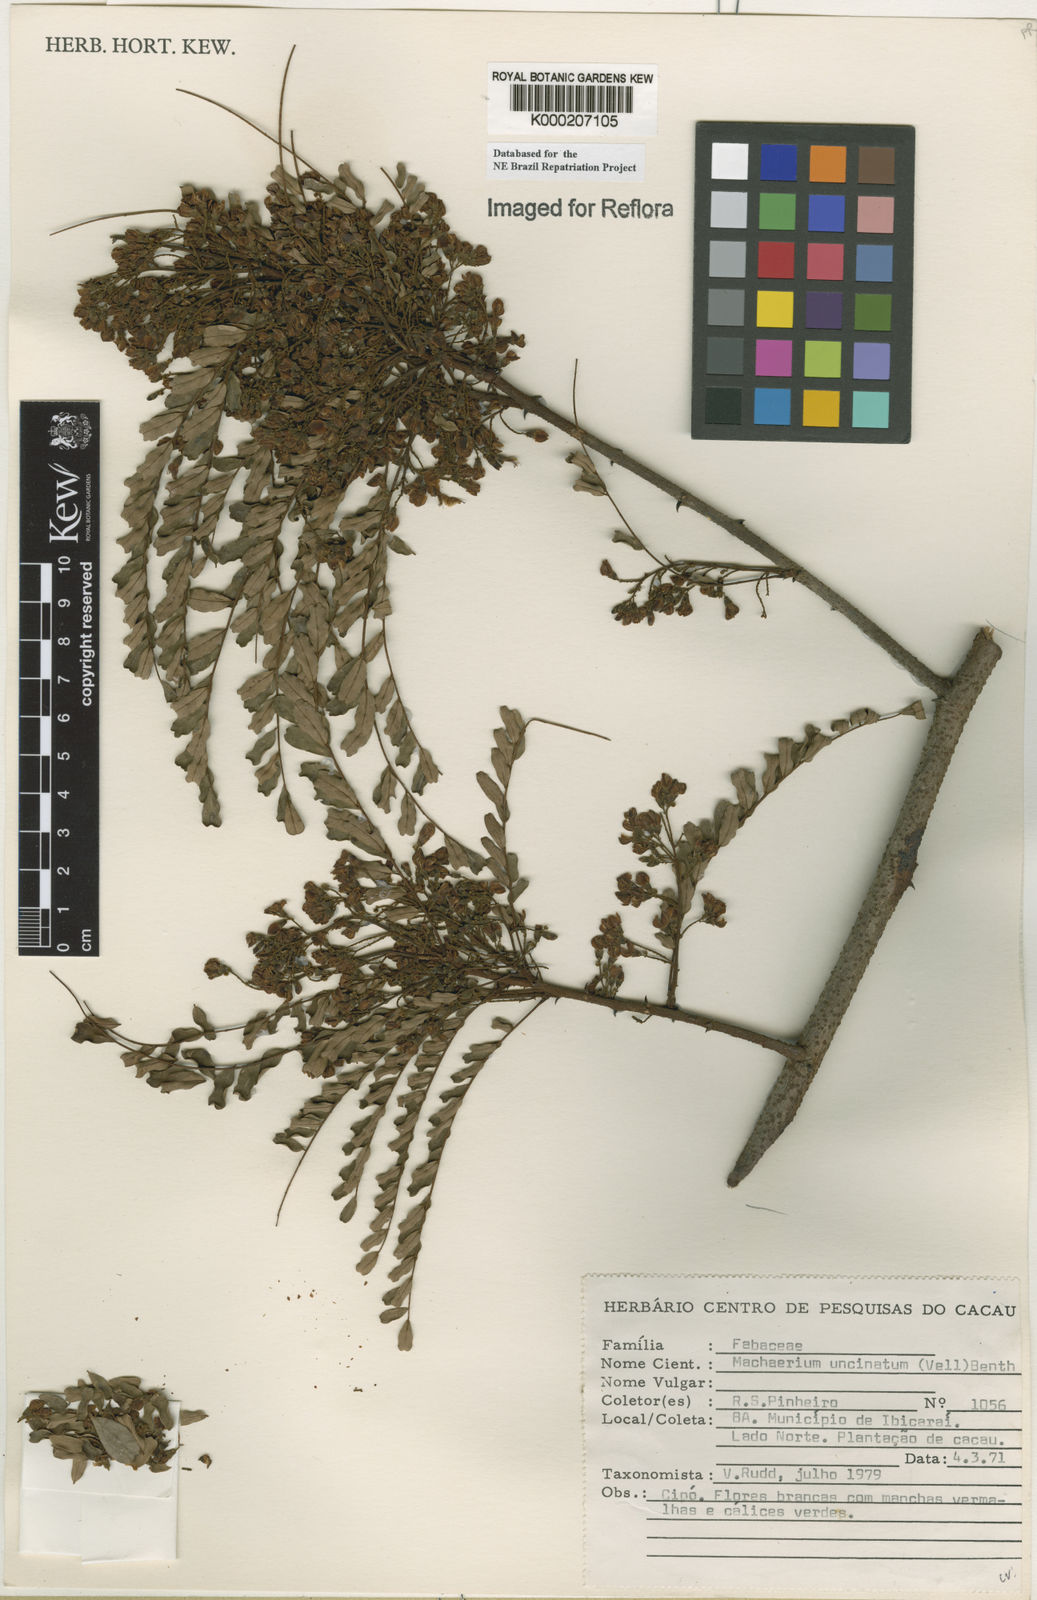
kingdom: Plantae
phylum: Tracheophyta
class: Magnoliopsida
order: Fabales
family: Fabaceae
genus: Machaerium
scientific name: Machaerium uncinatum
